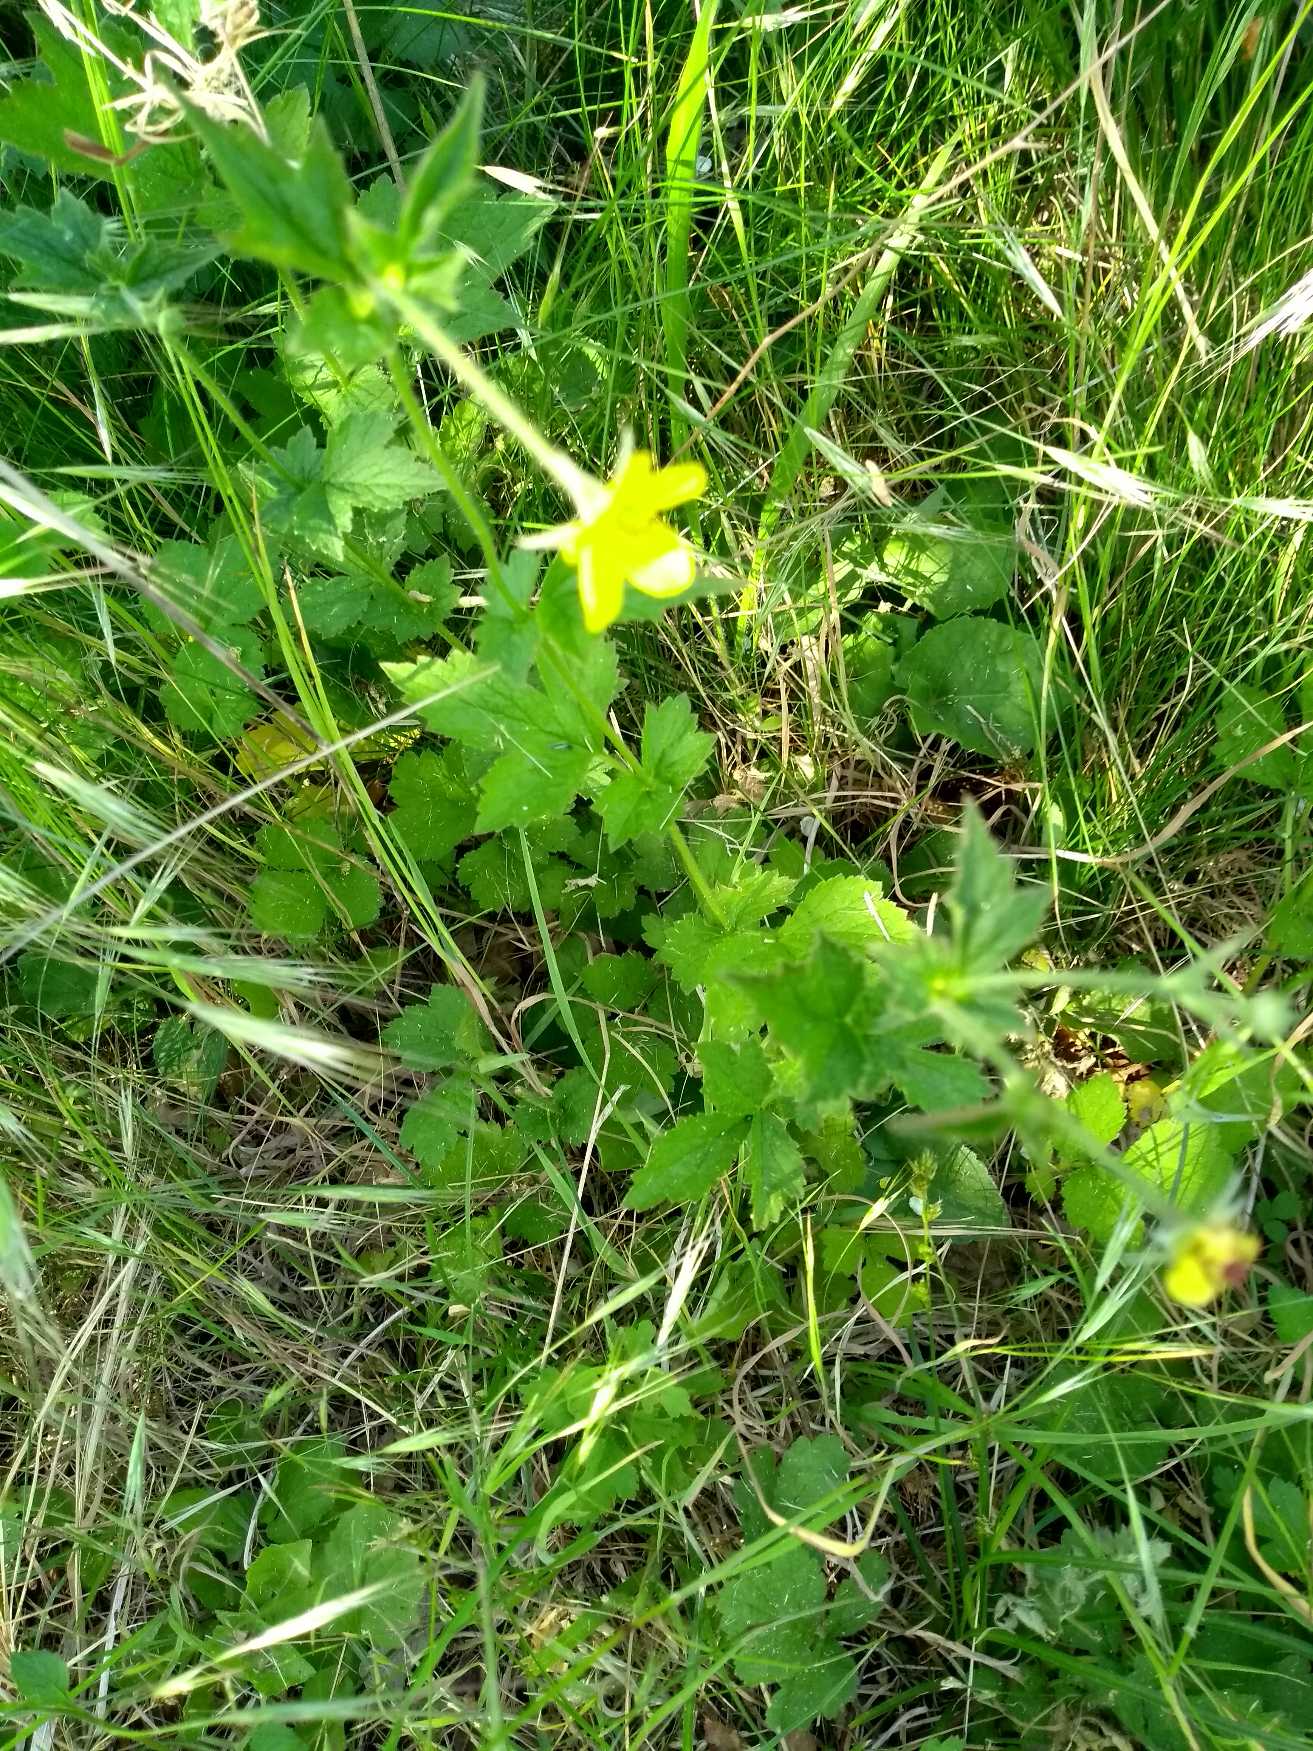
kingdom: Plantae
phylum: Tracheophyta
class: Magnoliopsida
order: Rosales
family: Rosaceae
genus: Geum
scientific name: Geum urbanum
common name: Feber-nellikerod
